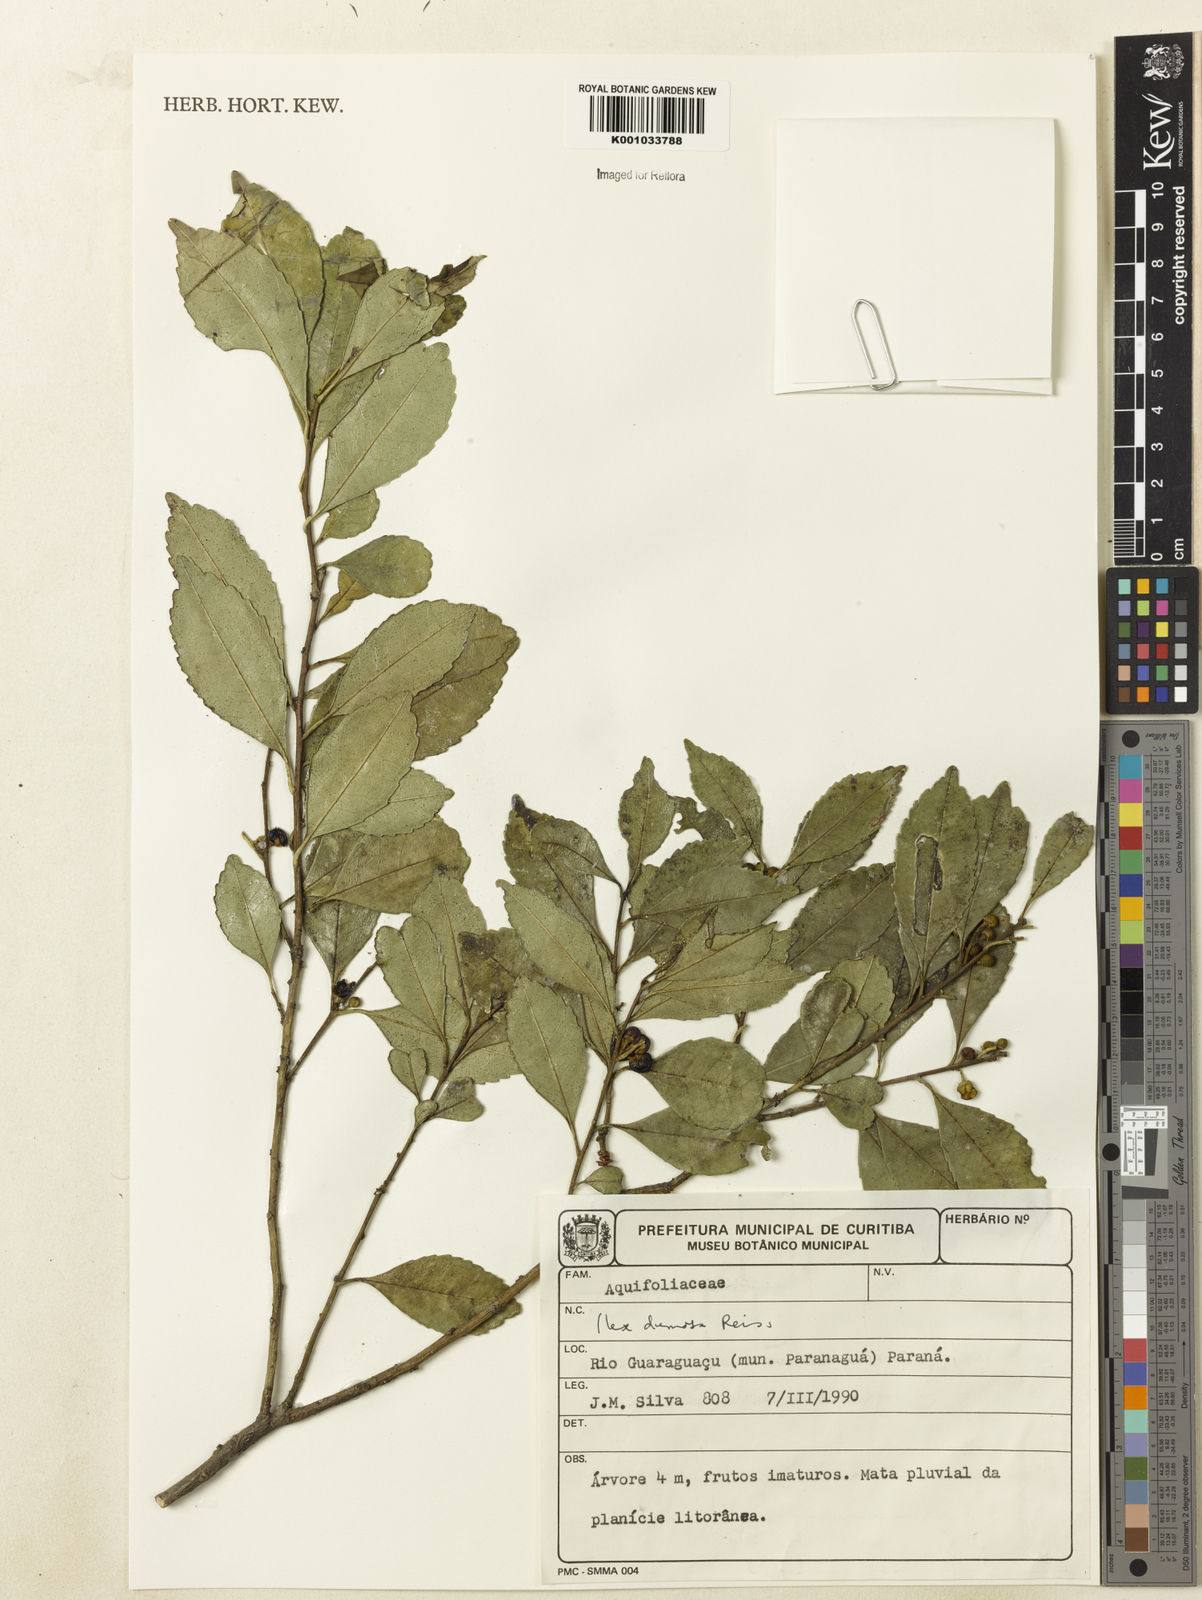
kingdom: Plantae
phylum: Tracheophyta
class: Magnoliopsida
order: Aquifoliales
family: Aquifoliaceae
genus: Ilex
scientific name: Ilex dumosa
